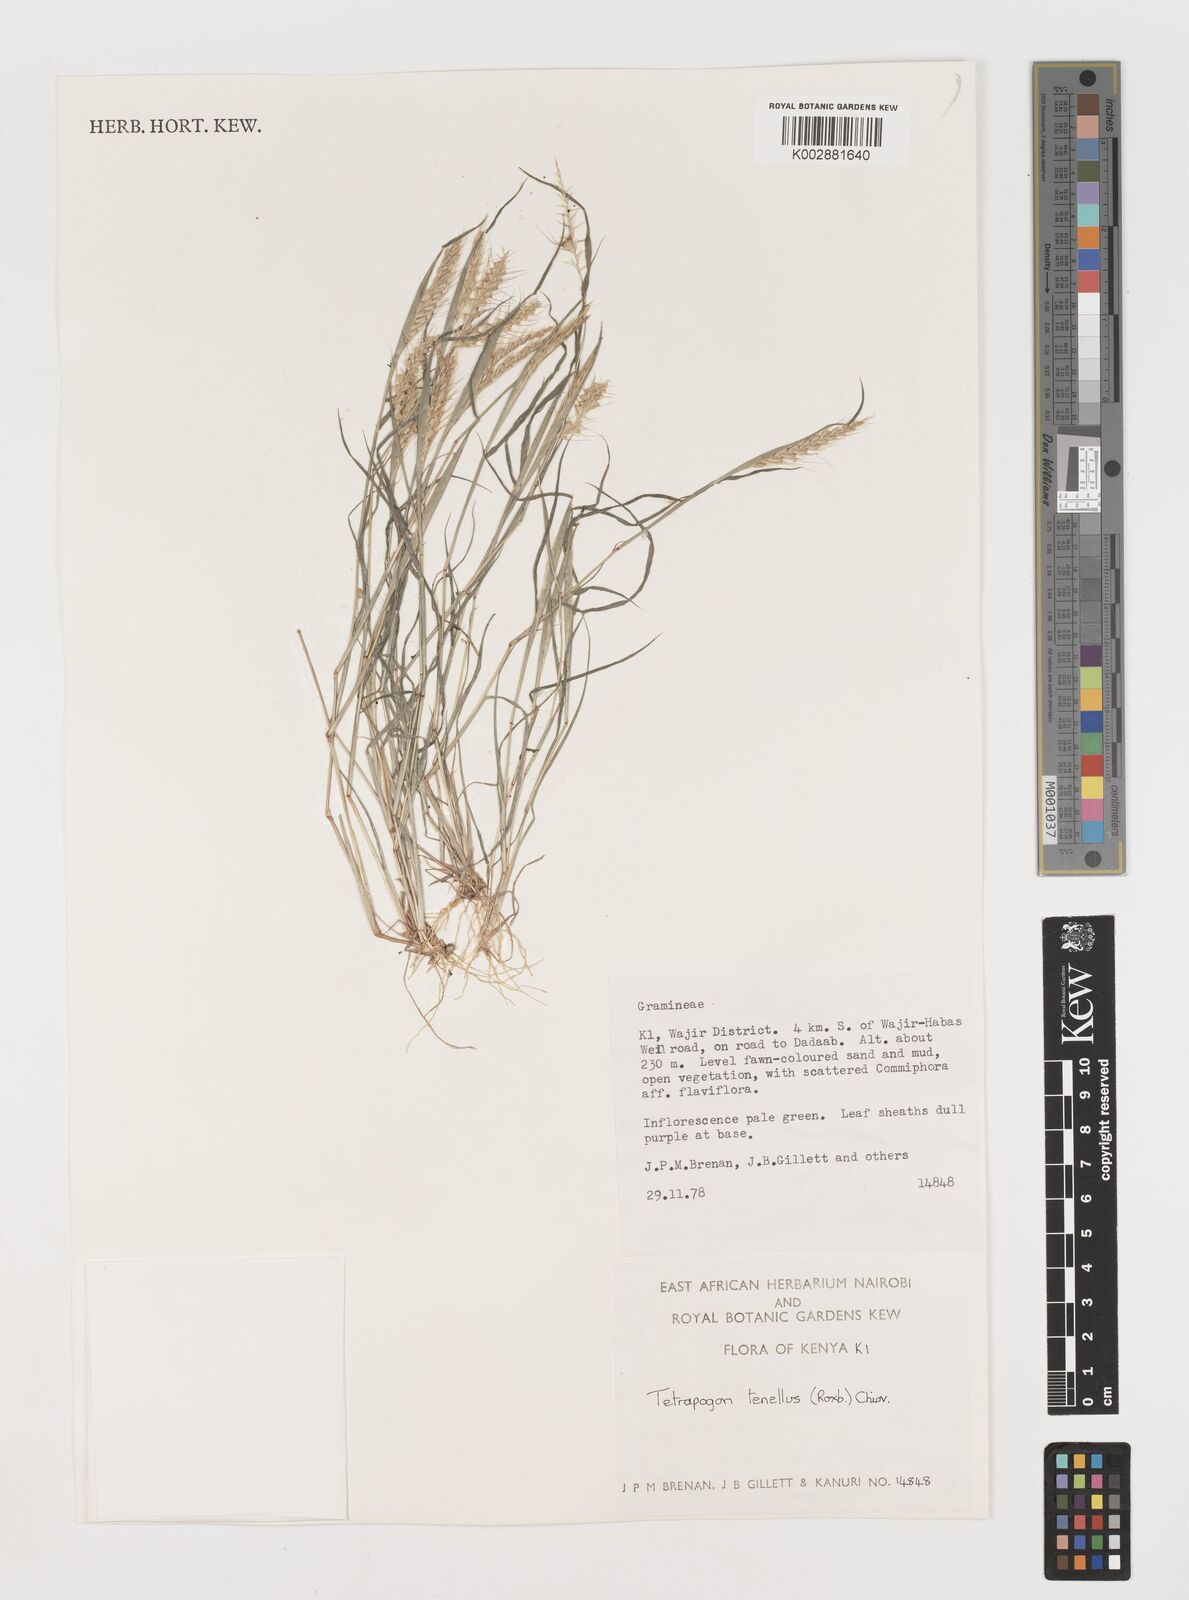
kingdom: Plantae
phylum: Tracheophyta
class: Liliopsida
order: Poales
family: Poaceae
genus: Tetrapogon
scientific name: Tetrapogon tenellus
